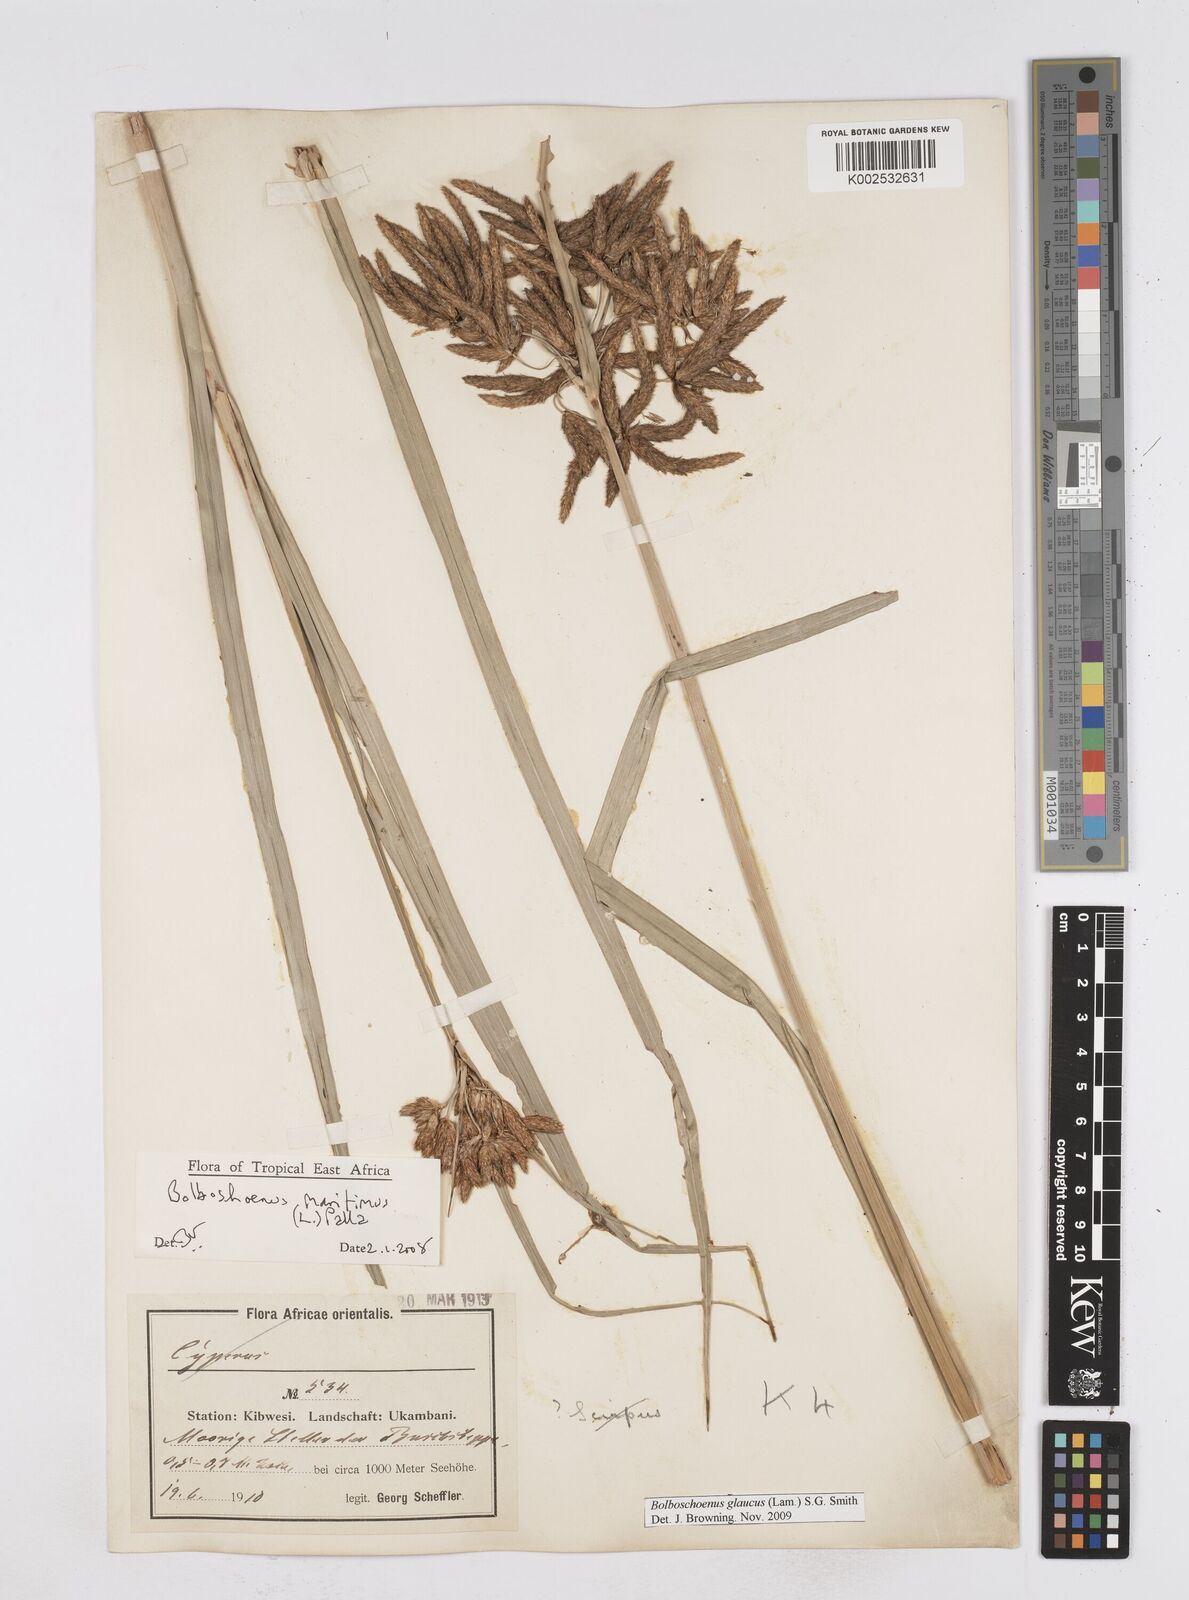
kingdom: Plantae
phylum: Tracheophyta
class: Liliopsida
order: Poales
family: Cyperaceae
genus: Bolboschoenus
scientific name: Bolboschoenus glaucus
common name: Tuberous bulrush
